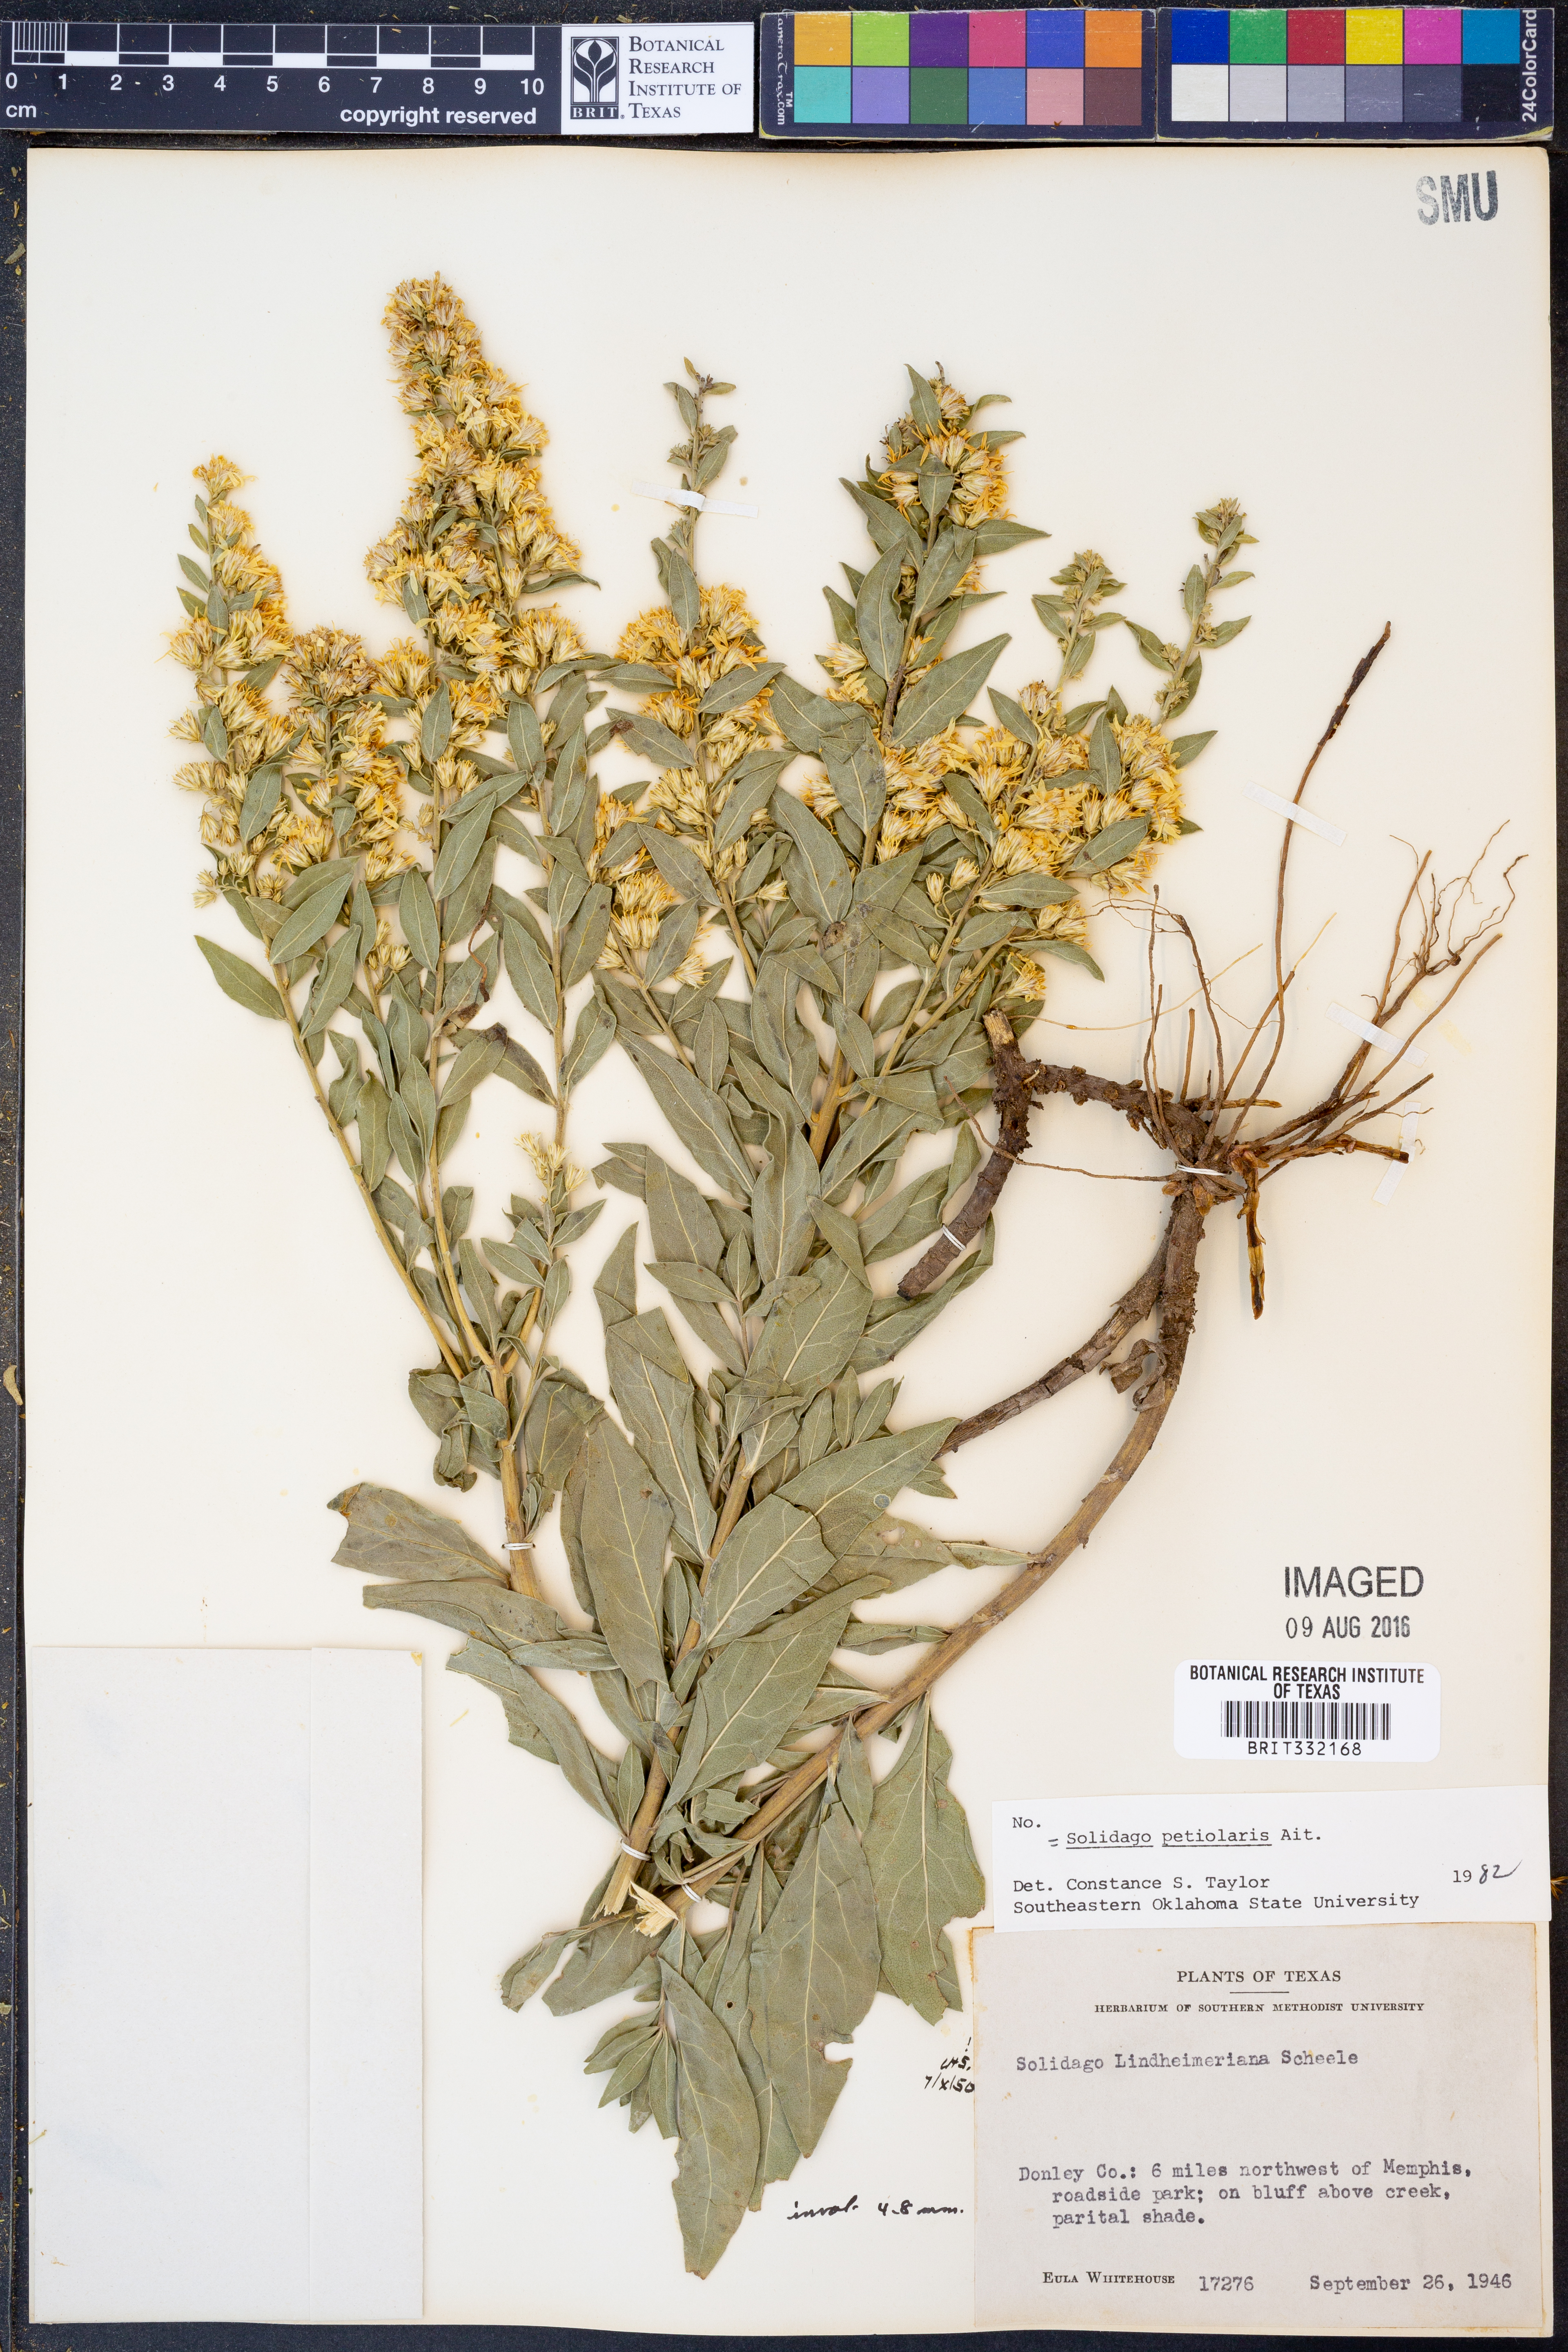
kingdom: Plantae
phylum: Tracheophyta
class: Magnoliopsida
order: Asterales
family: Asteraceae
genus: Solidago
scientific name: Solidago petiolaris
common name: Downy ragged goldenrod
